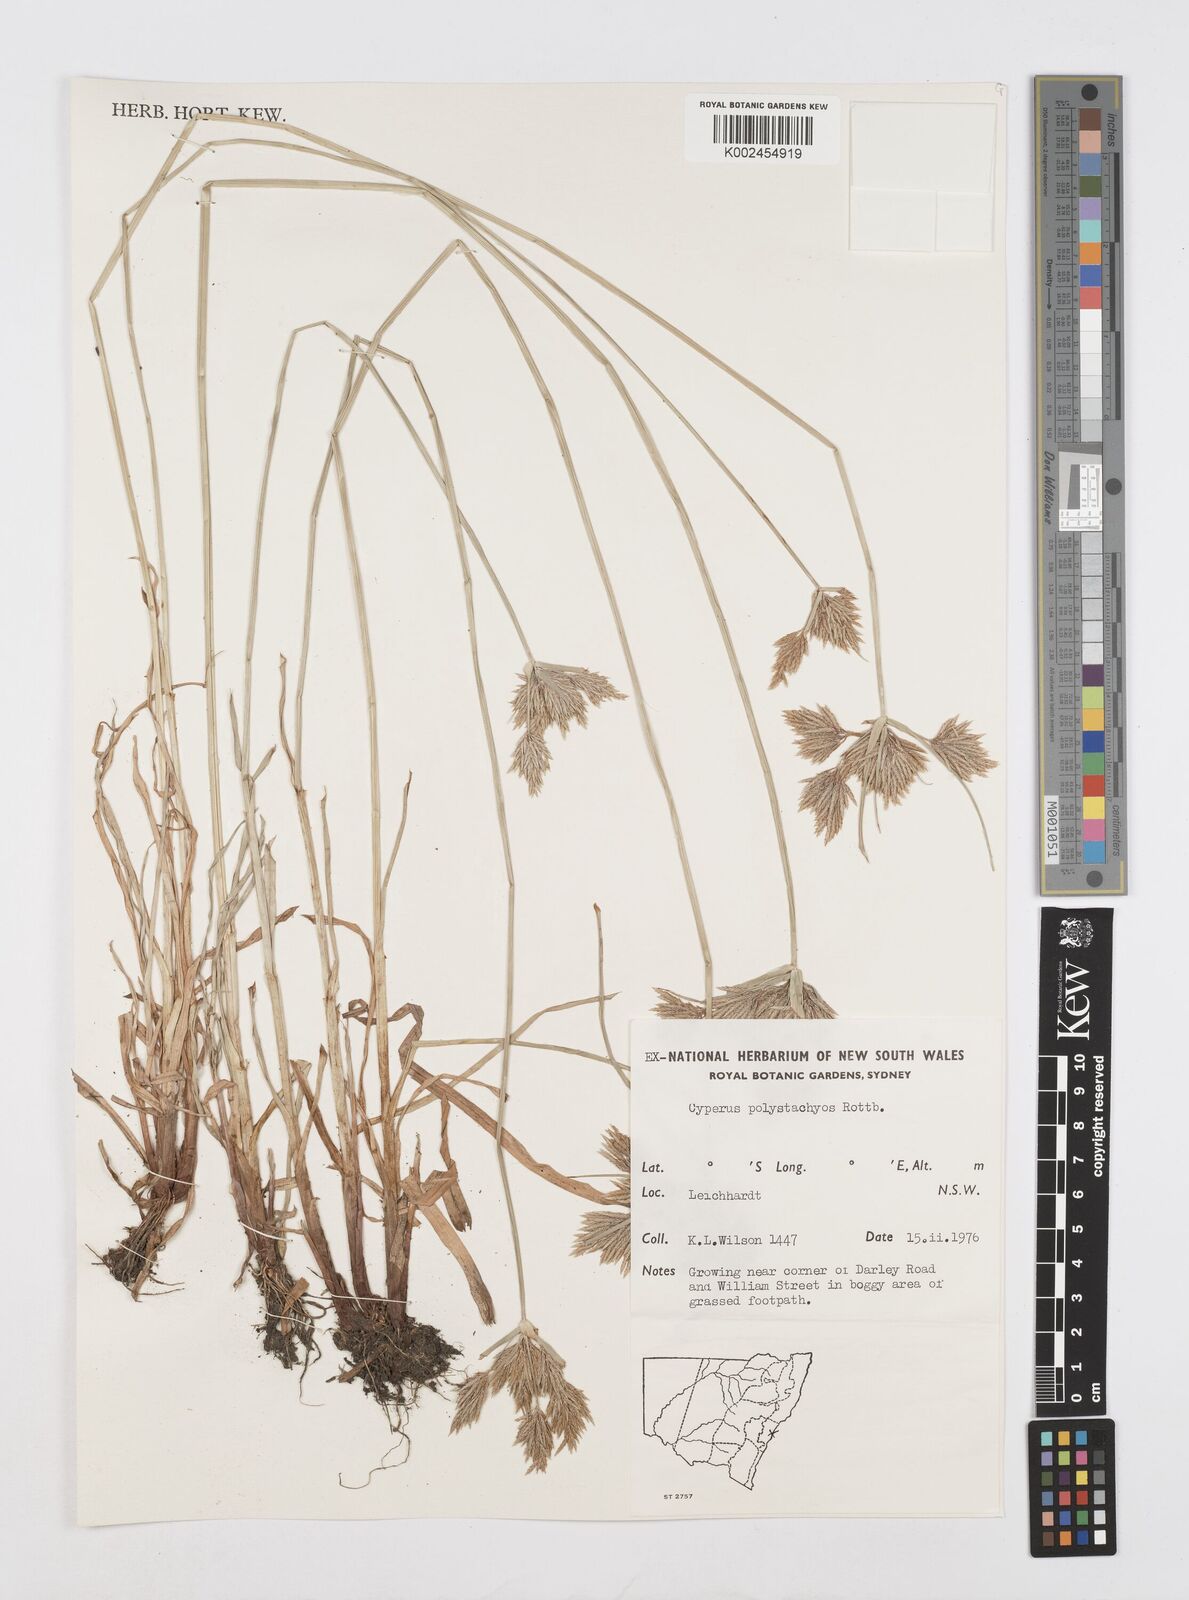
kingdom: Plantae
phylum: Tracheophyta
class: Liliopsida
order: Poales
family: Cyperaceae
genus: Cyperus
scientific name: Cyperus polystachyos
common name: Bunchy flat sedge
